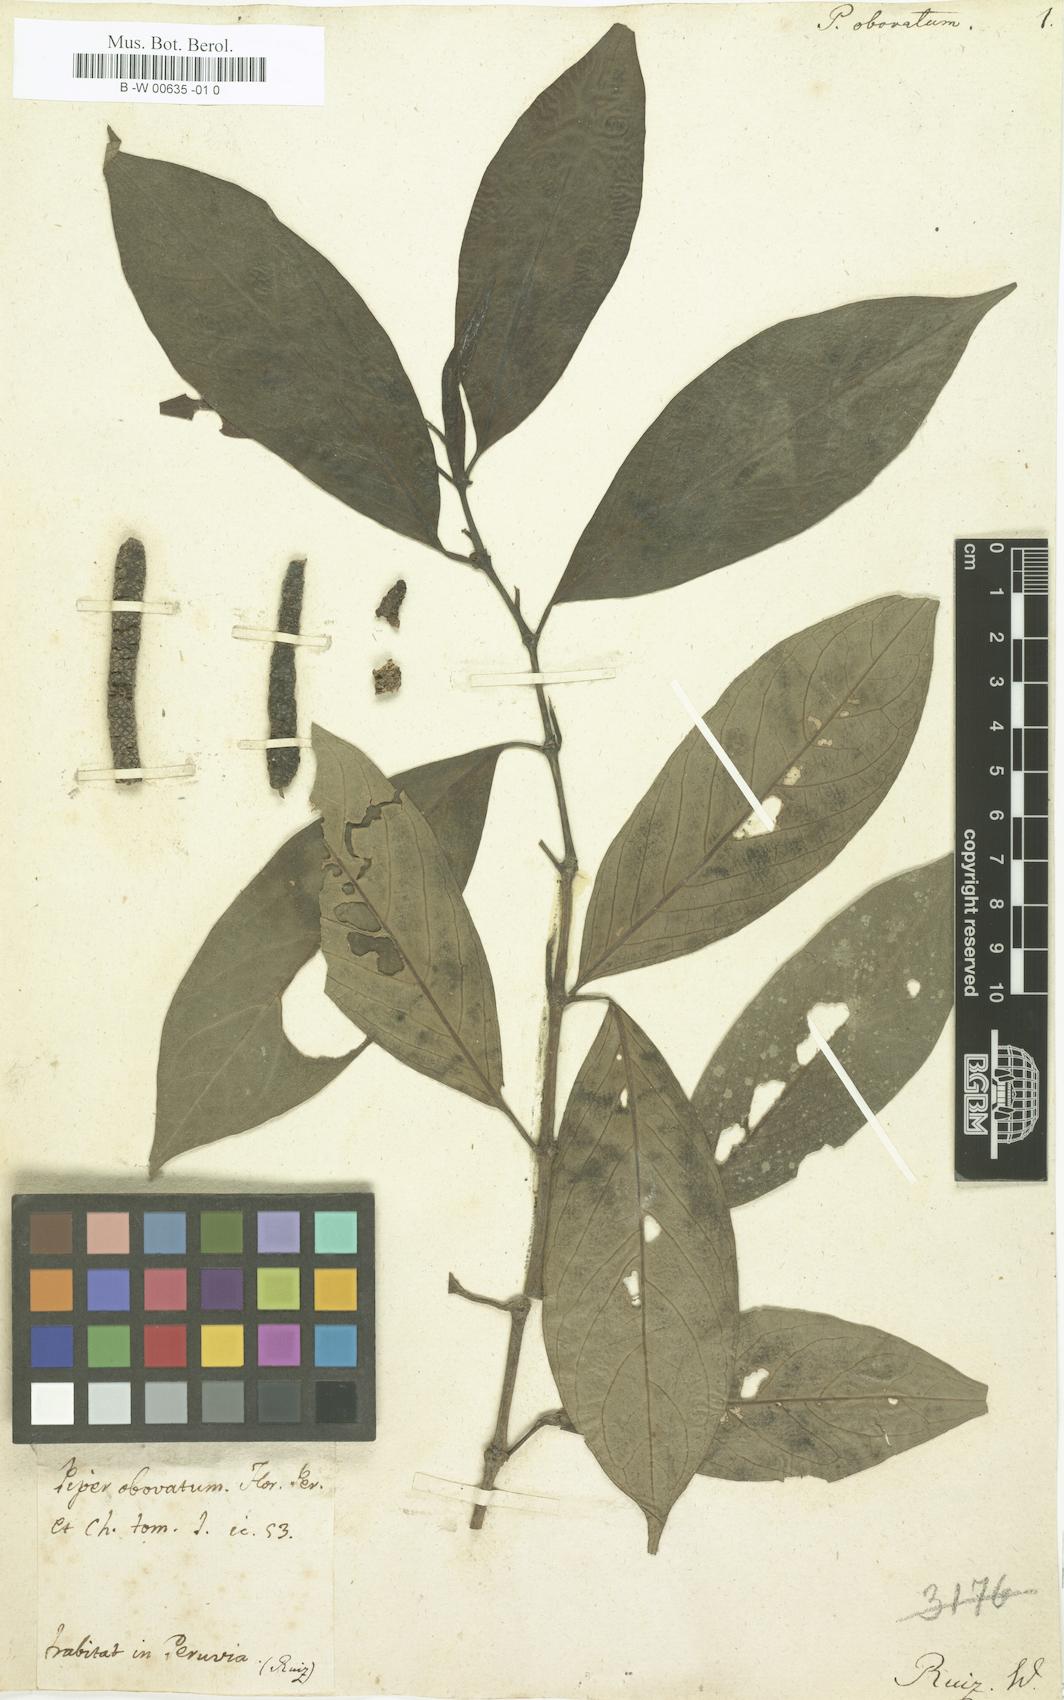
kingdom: Plantae
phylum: Tracheophyta
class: Magnoliopsida
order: Piperales
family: Piperaceae
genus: Piper
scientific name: Piper atroglandulosum
